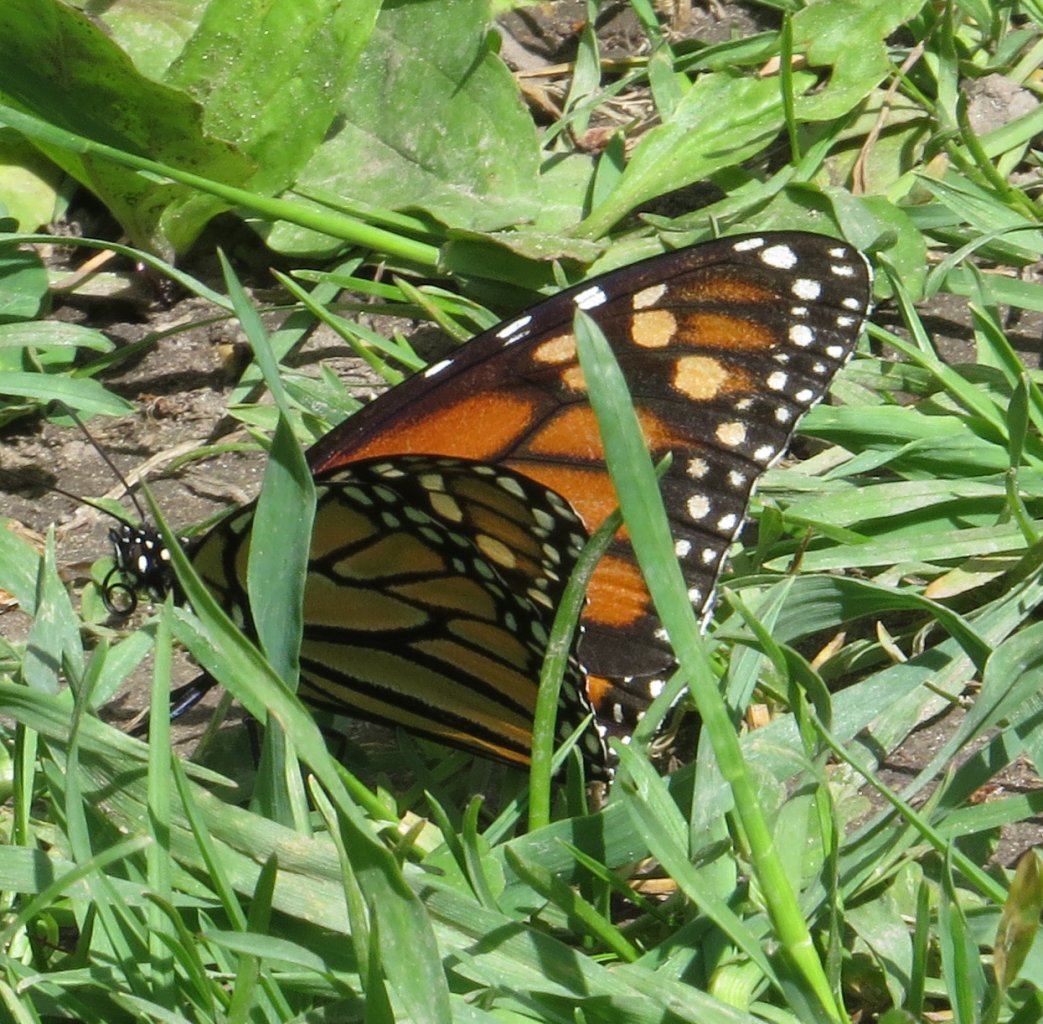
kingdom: Animalia
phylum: Arthropoda
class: Insecta
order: Lepidoptera
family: Nymphalidae
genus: Danaus
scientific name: Danaus plexippus
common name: Monarch
